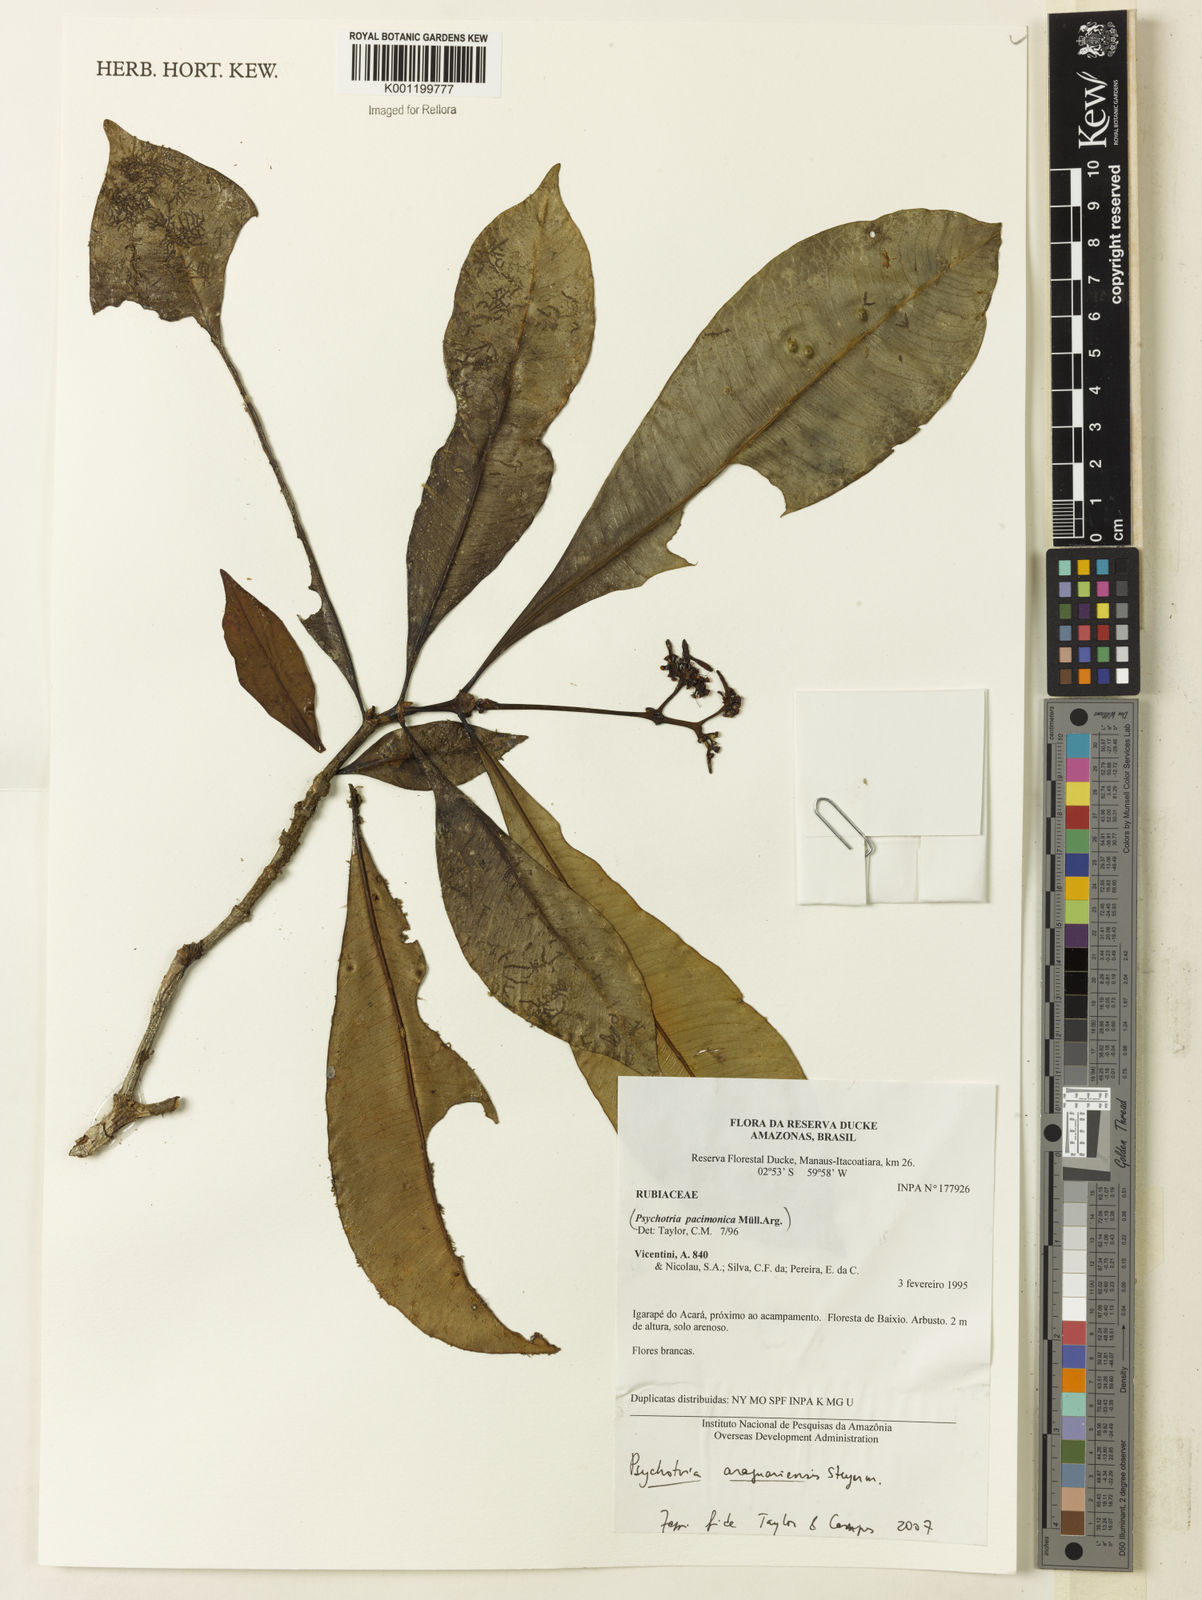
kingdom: Plantae
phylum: Tracheophyta
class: Magnoliopsida
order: Gentianales
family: Rubiaceae
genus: Carapichea
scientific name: Carapichea araguariensis
